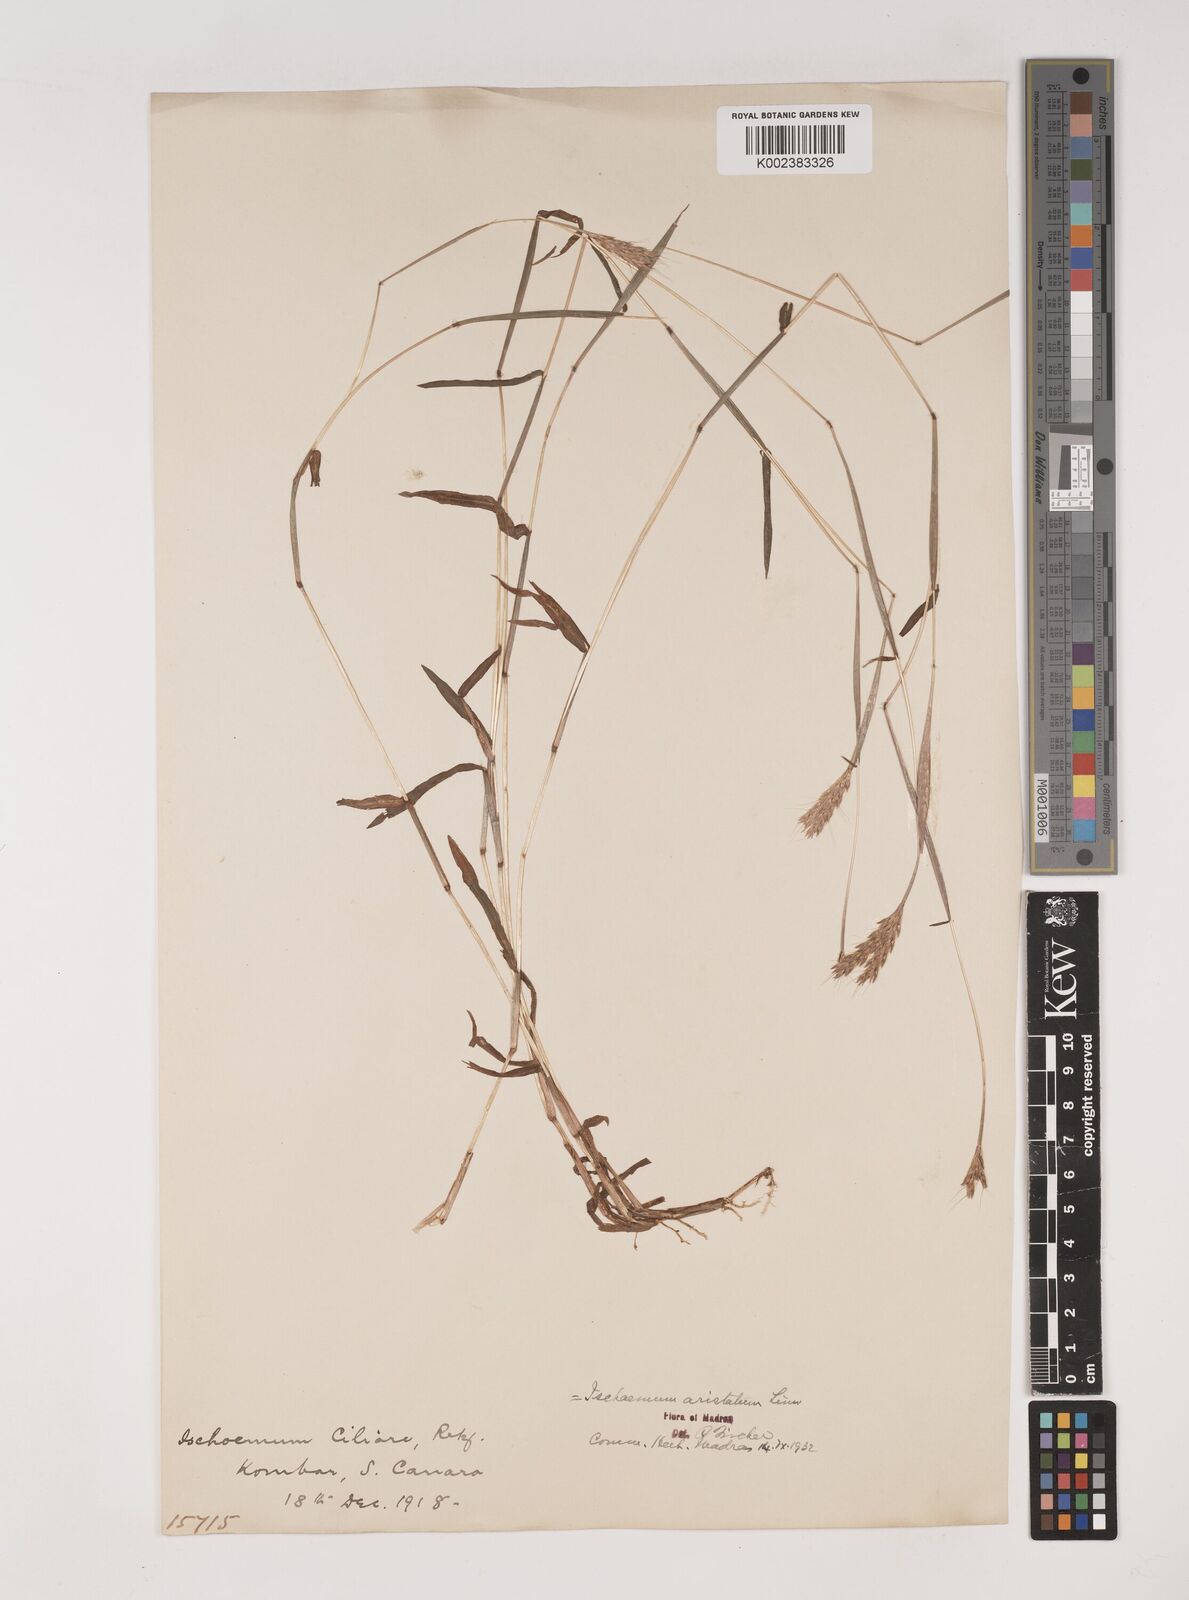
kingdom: Plantae
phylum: Tracheophyta
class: Liliopsida
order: Poales
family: Poaceae
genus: Polytrias
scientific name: Polytrias indica
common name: Indian murainagrass
